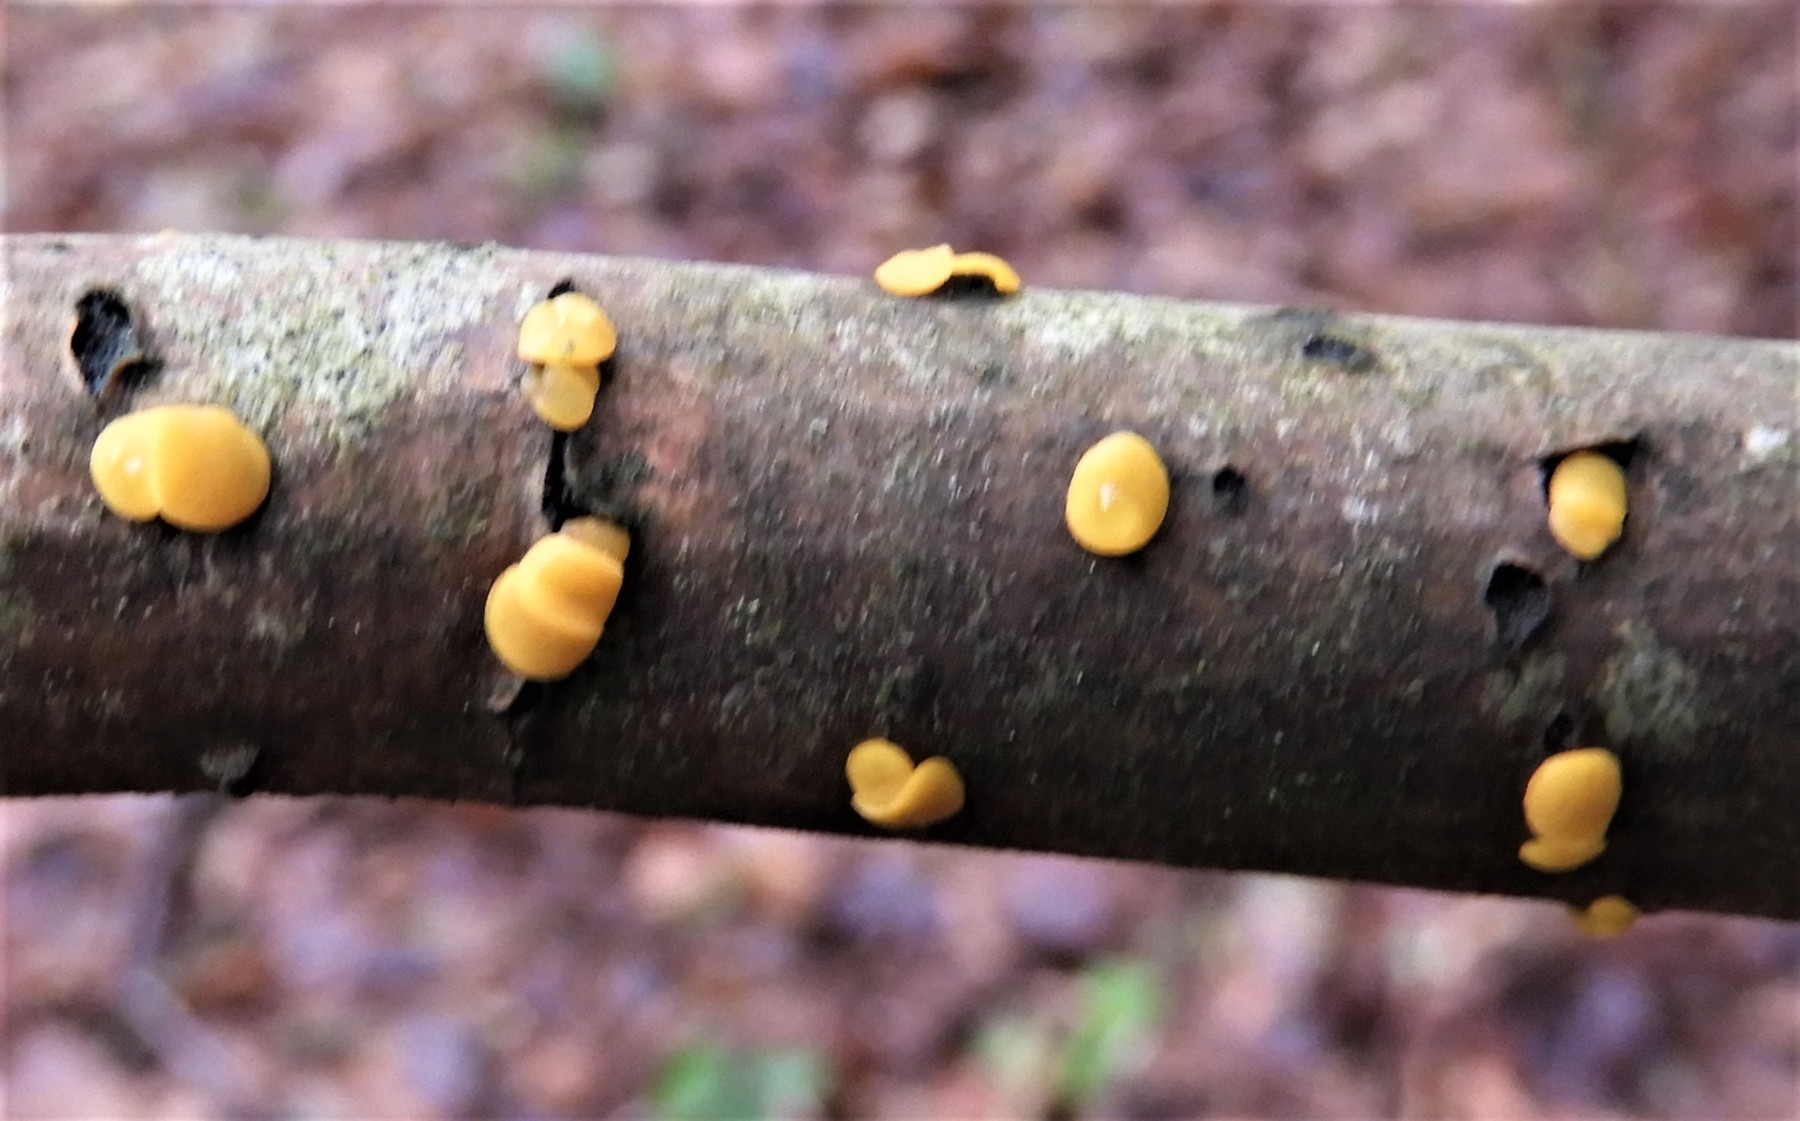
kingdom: Fungi
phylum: Ascomycota
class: Leotiomycetes
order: Helotiales
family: Pezizellaceae
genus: Calycina
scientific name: Calycina citrina
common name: almindelig gulskive
